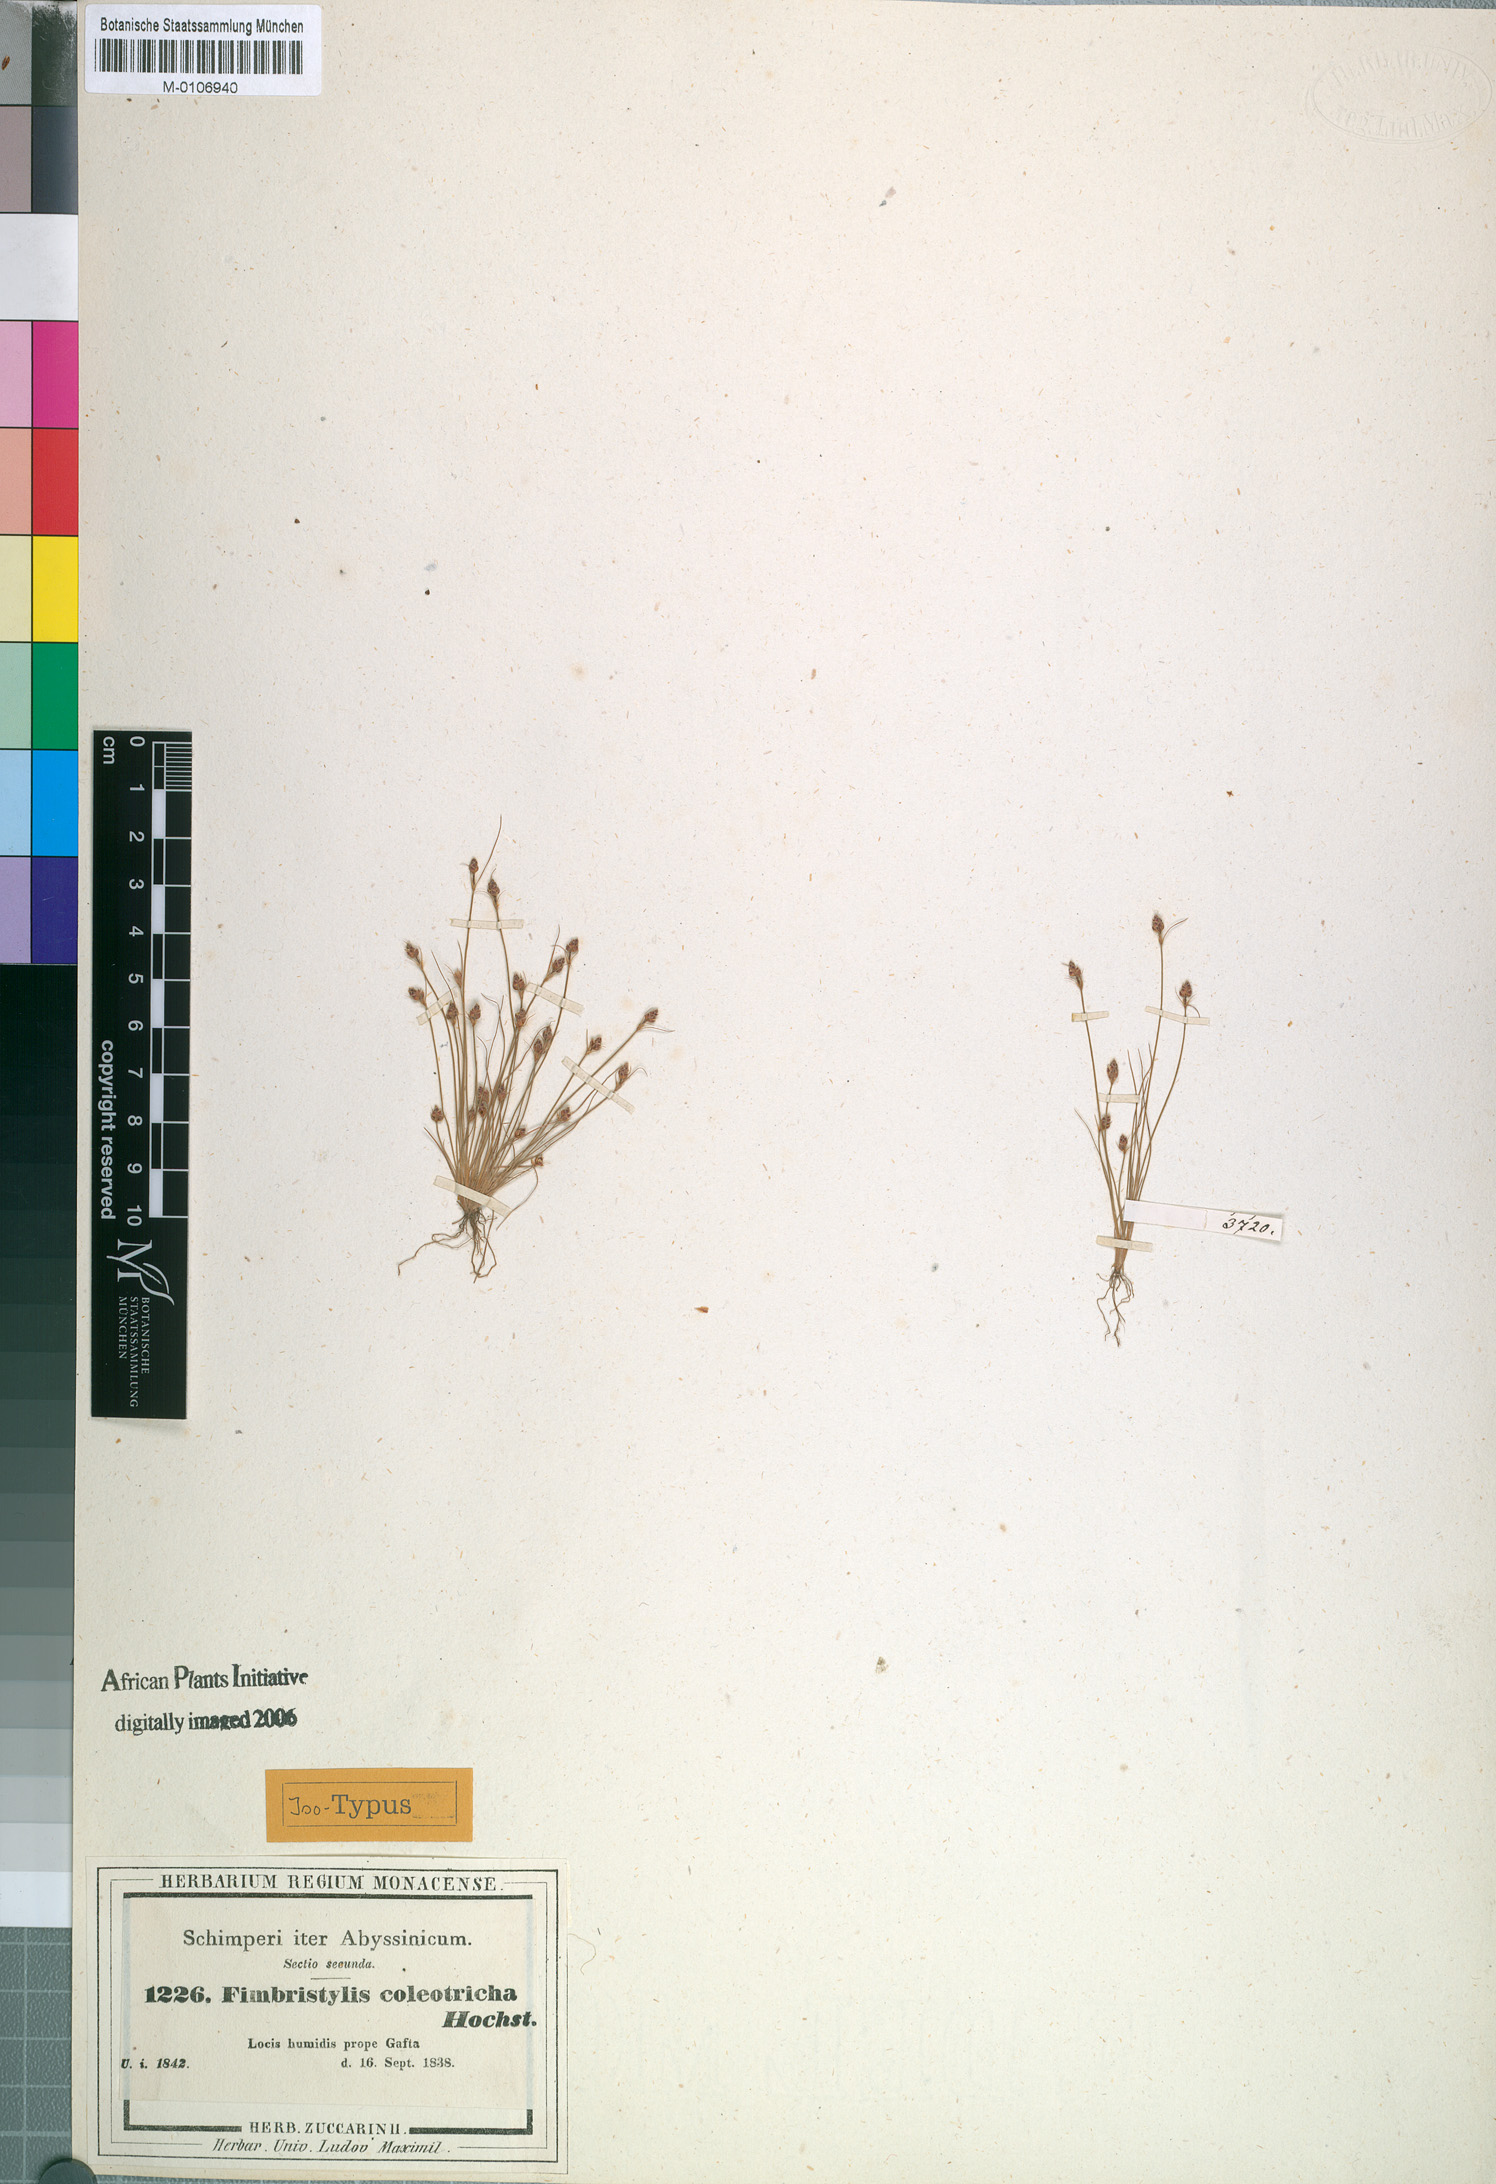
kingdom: Plantae
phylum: Tracheophyta
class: Liliopsida
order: Poales
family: Cyperaceae
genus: Bulbostylis
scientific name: Bulbostylis coleotricha
